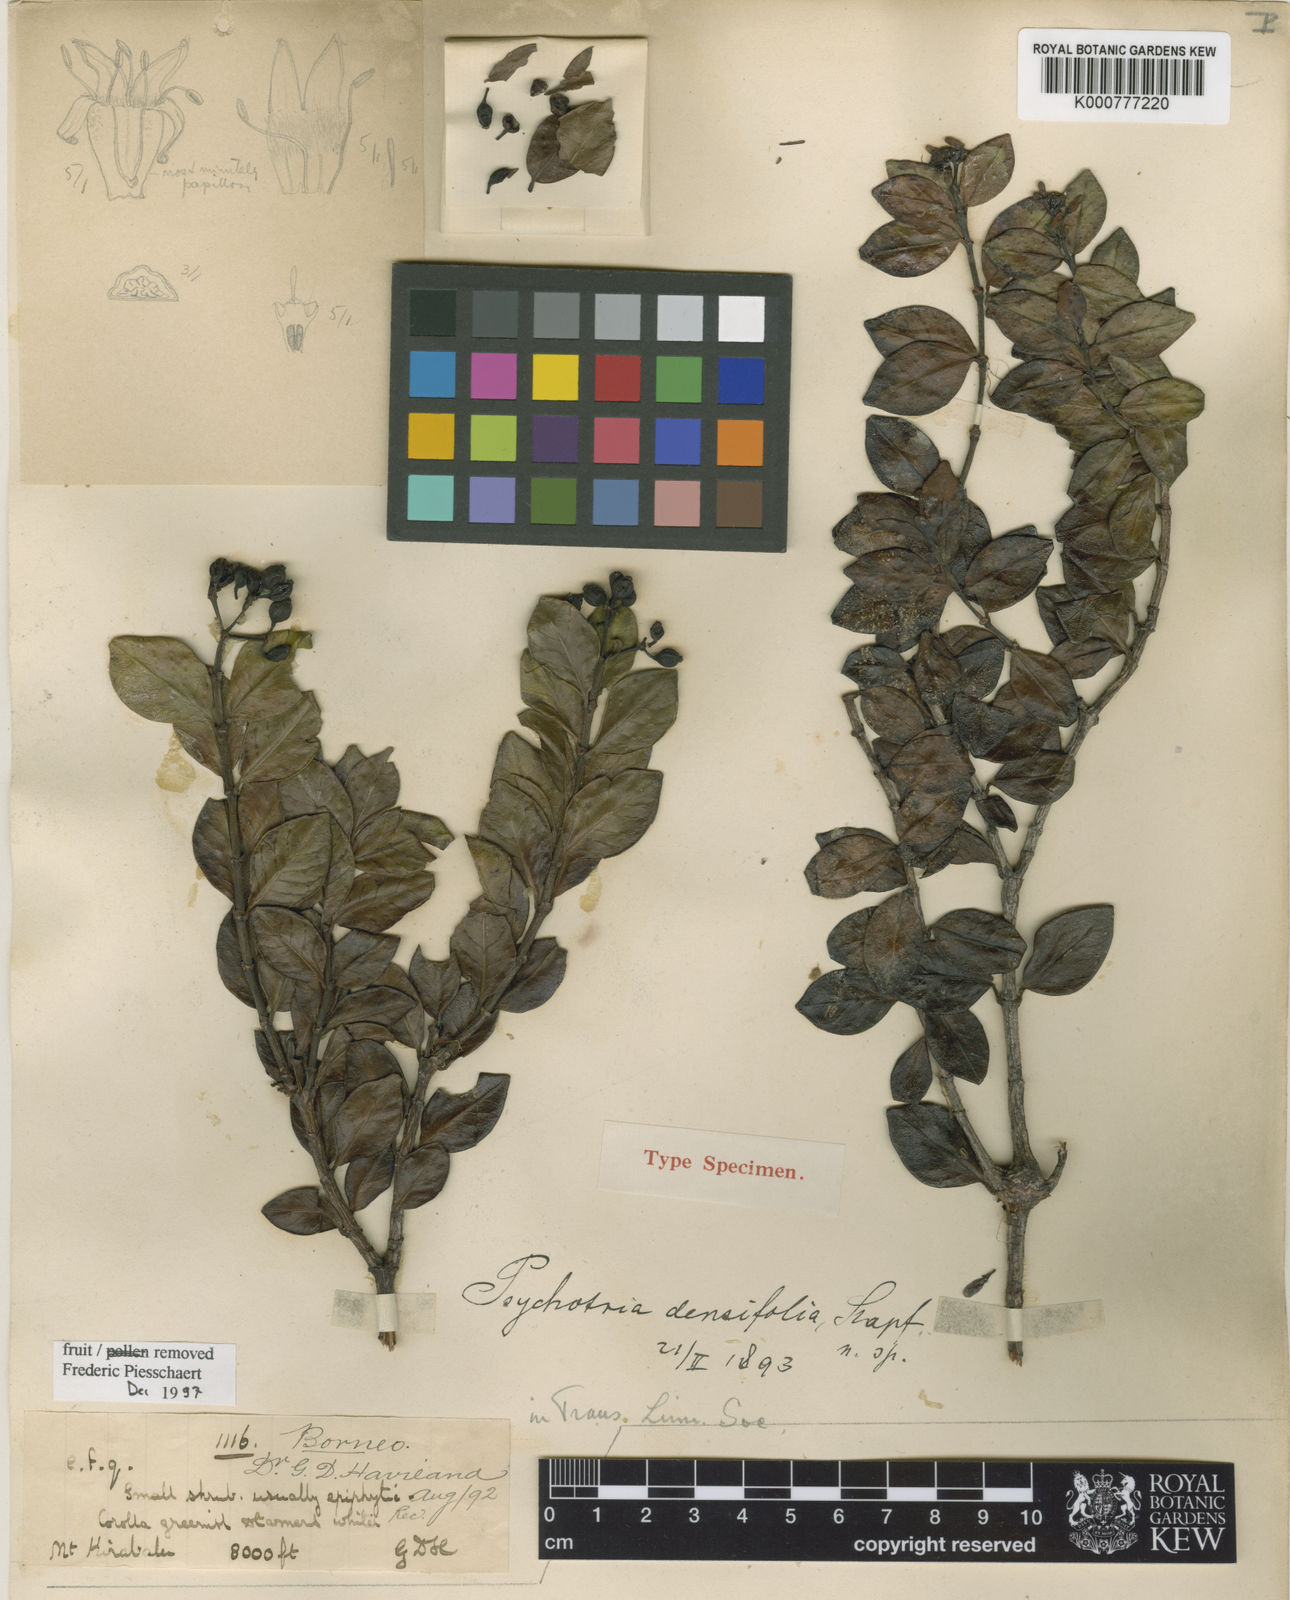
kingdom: Plantae
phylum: Tracheophyta
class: Magnoliopsida
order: Gentianales
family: Rubiaceae
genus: Psychotria
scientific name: Psychotria densifolia
